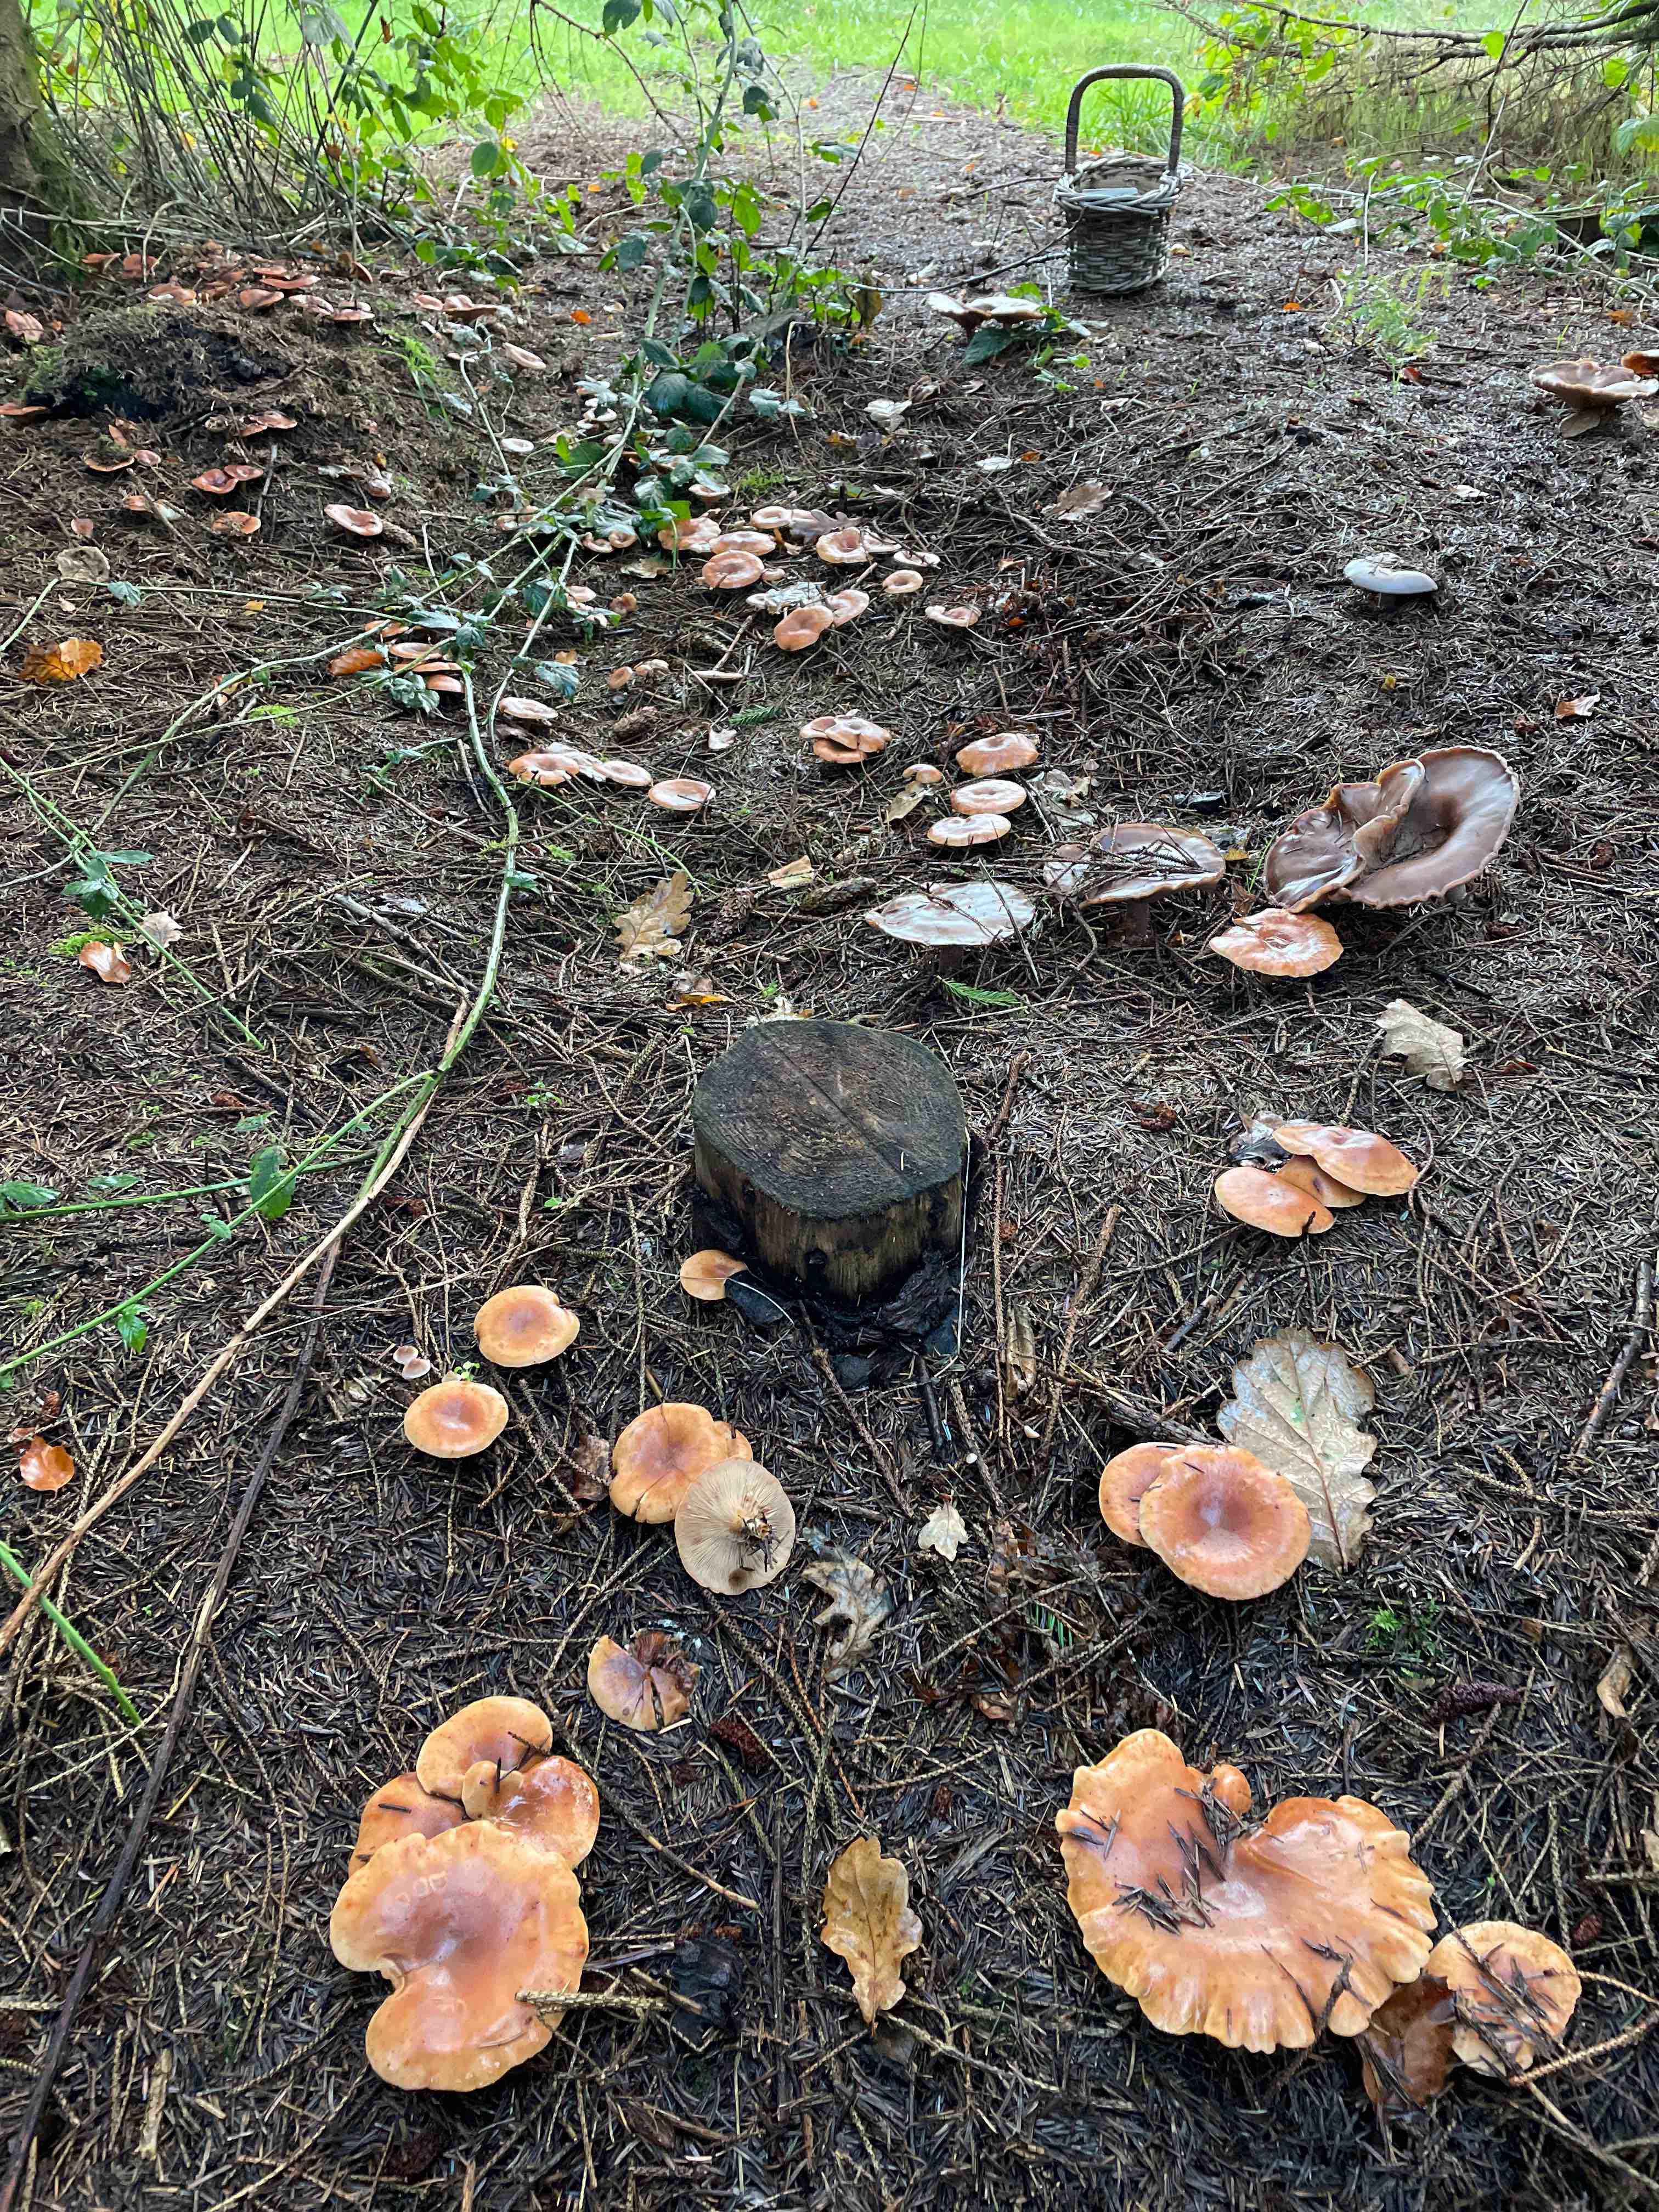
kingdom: Fungi
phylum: Basidiomycota
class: Agaricomycetes
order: Agaricales
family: Tricholomataceae
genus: Paralepista
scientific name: Paralepista flaccida
